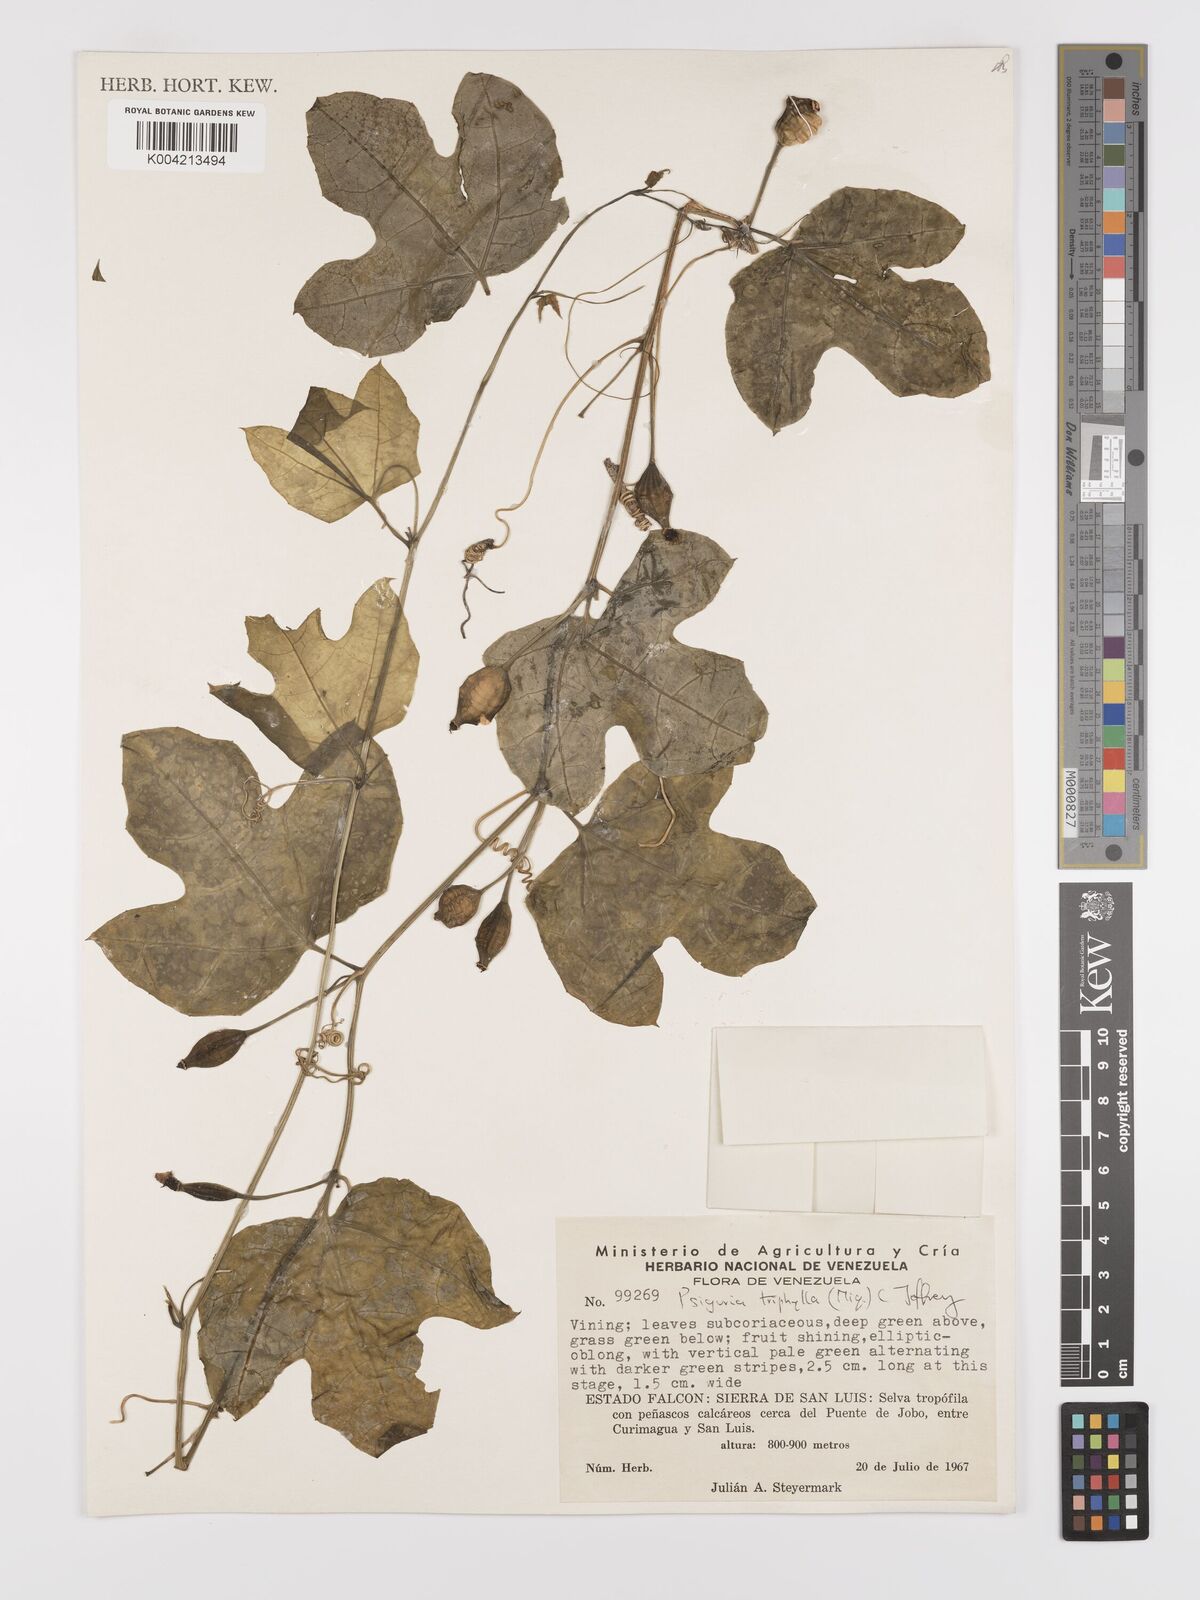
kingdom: Plantae
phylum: Tracheophyta
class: Magnoliopsida
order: Cucurbitales
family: Cucurbitaceae
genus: Psiguria
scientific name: Psiguria
